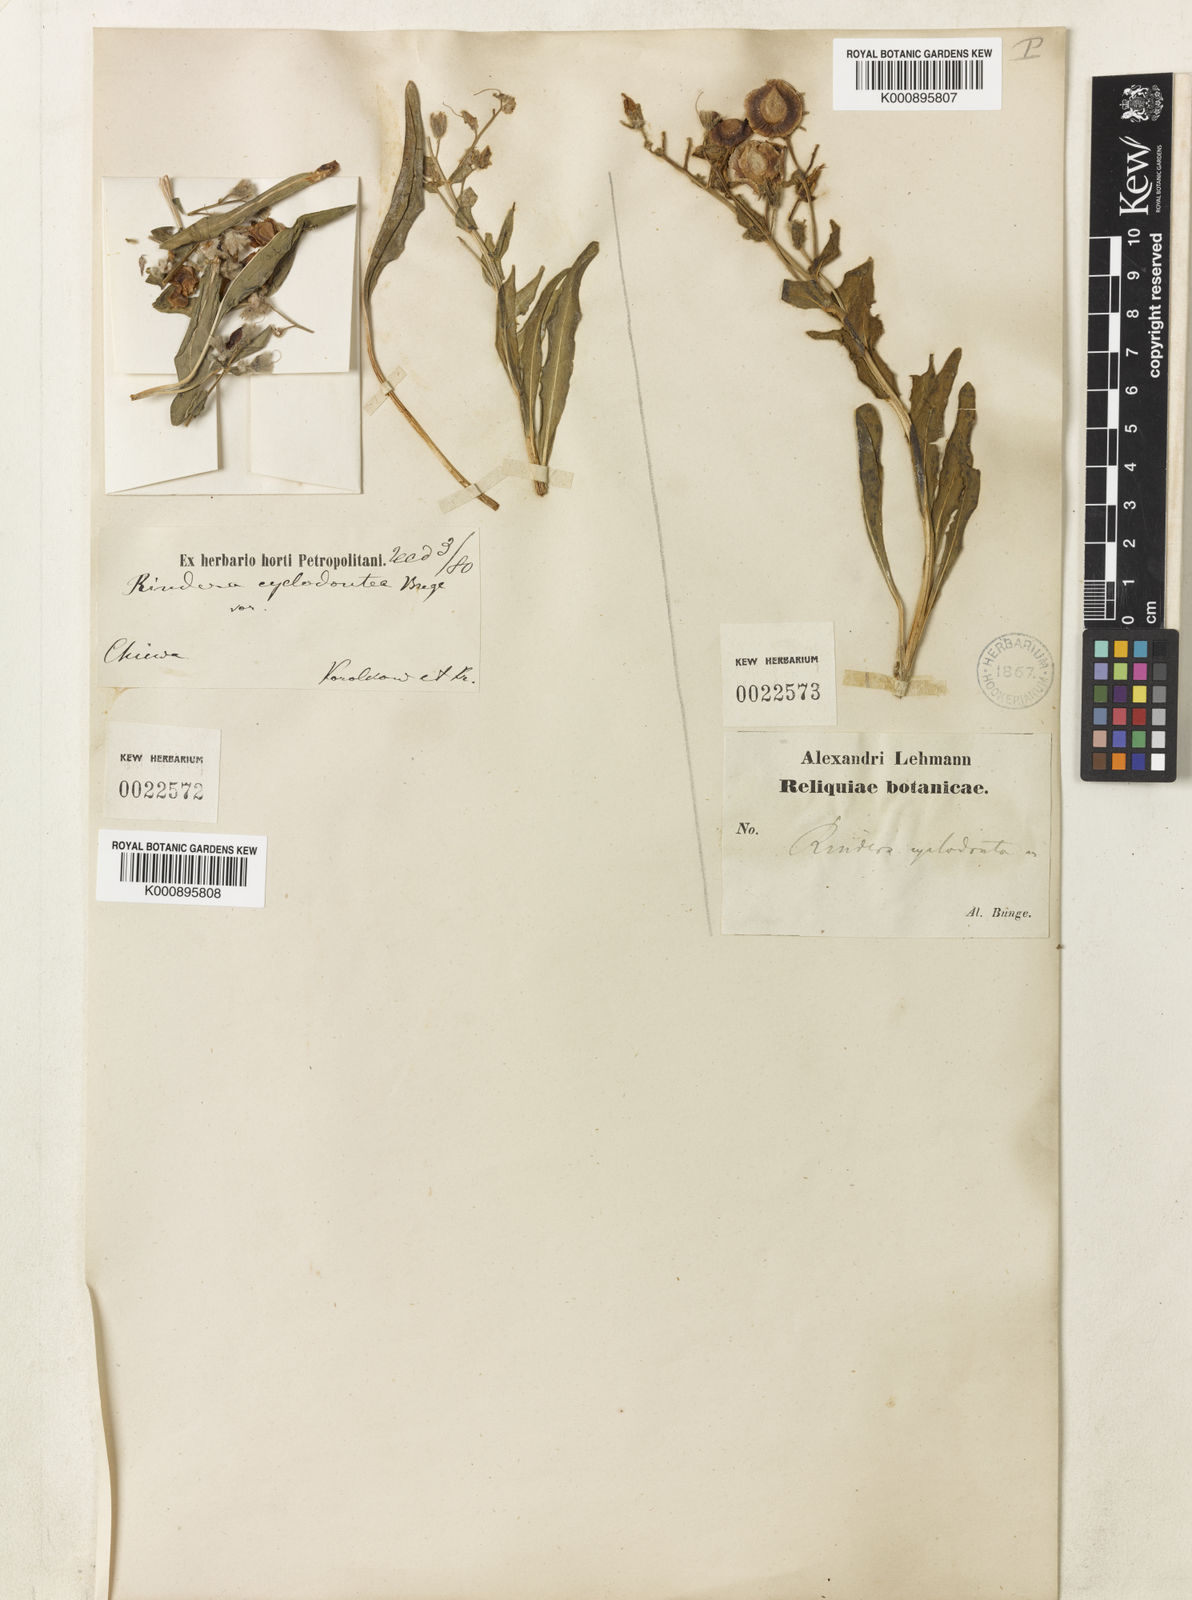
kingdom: Plantae
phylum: Tracheophyta
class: Magnoliopsida
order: Boraginales
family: Boraginaceae
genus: Rindera
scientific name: Rindera tetraspis
